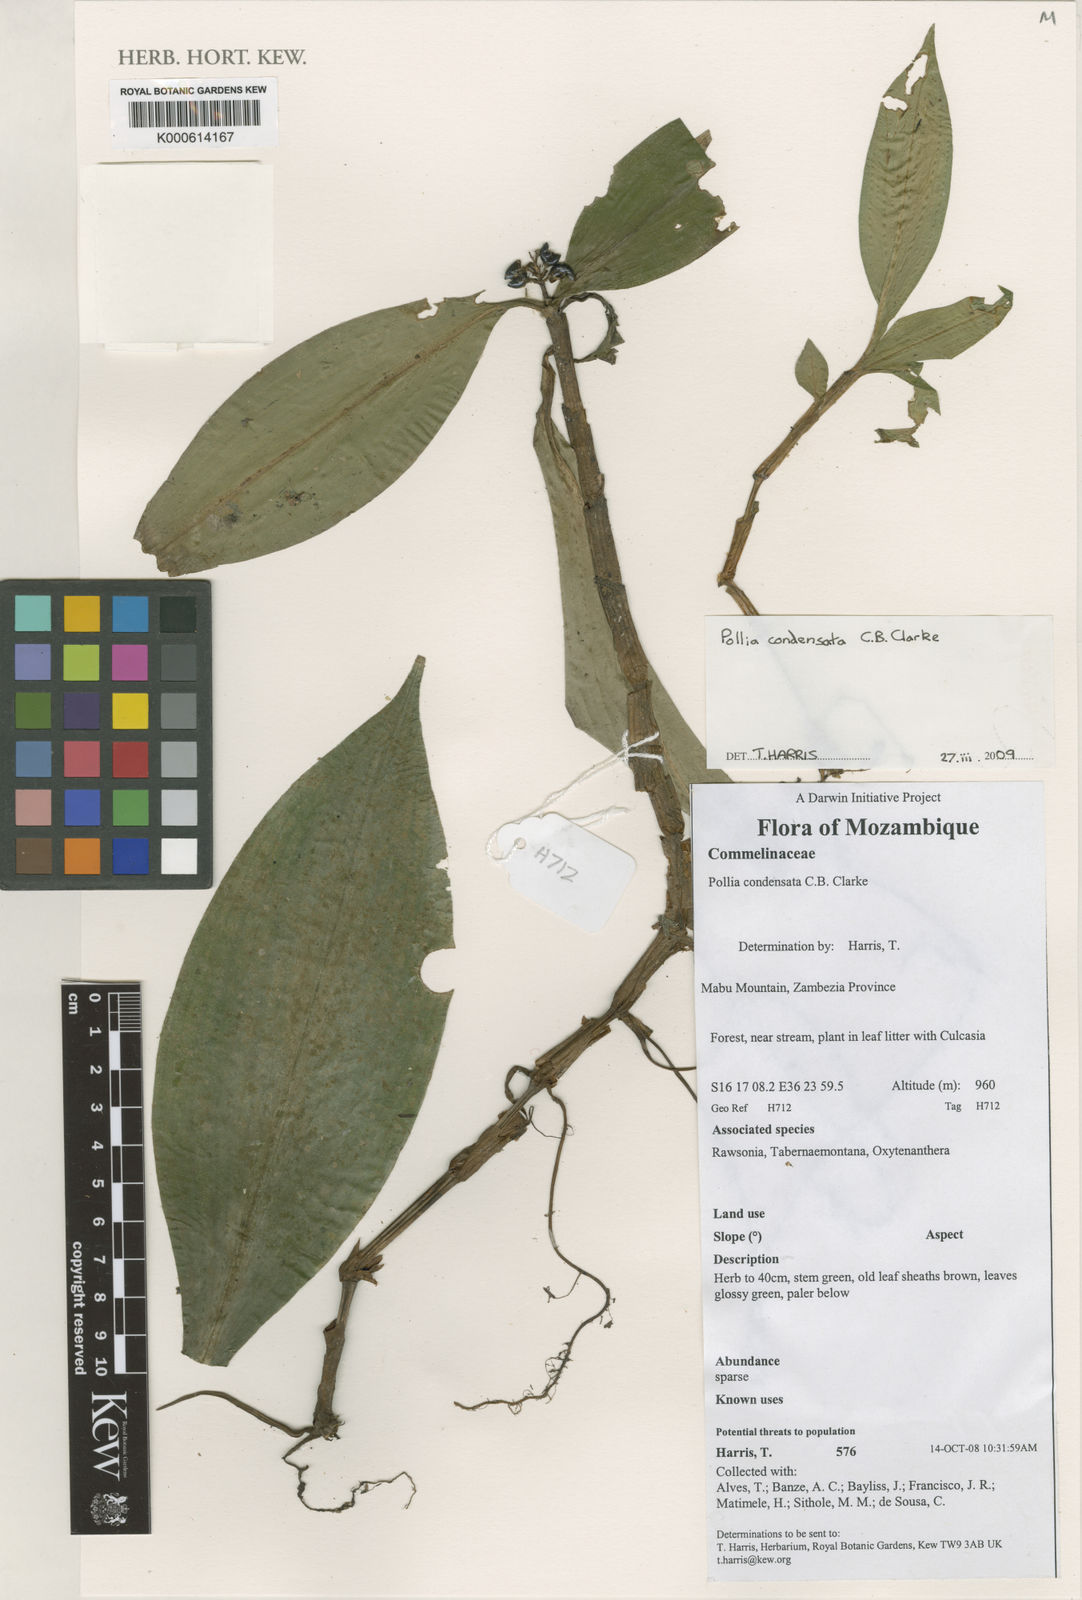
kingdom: Plantae
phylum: Tracheophyta
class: Liliopsida
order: Commelinales
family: Commelinaceae
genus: Pollia
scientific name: Pollia condensata
